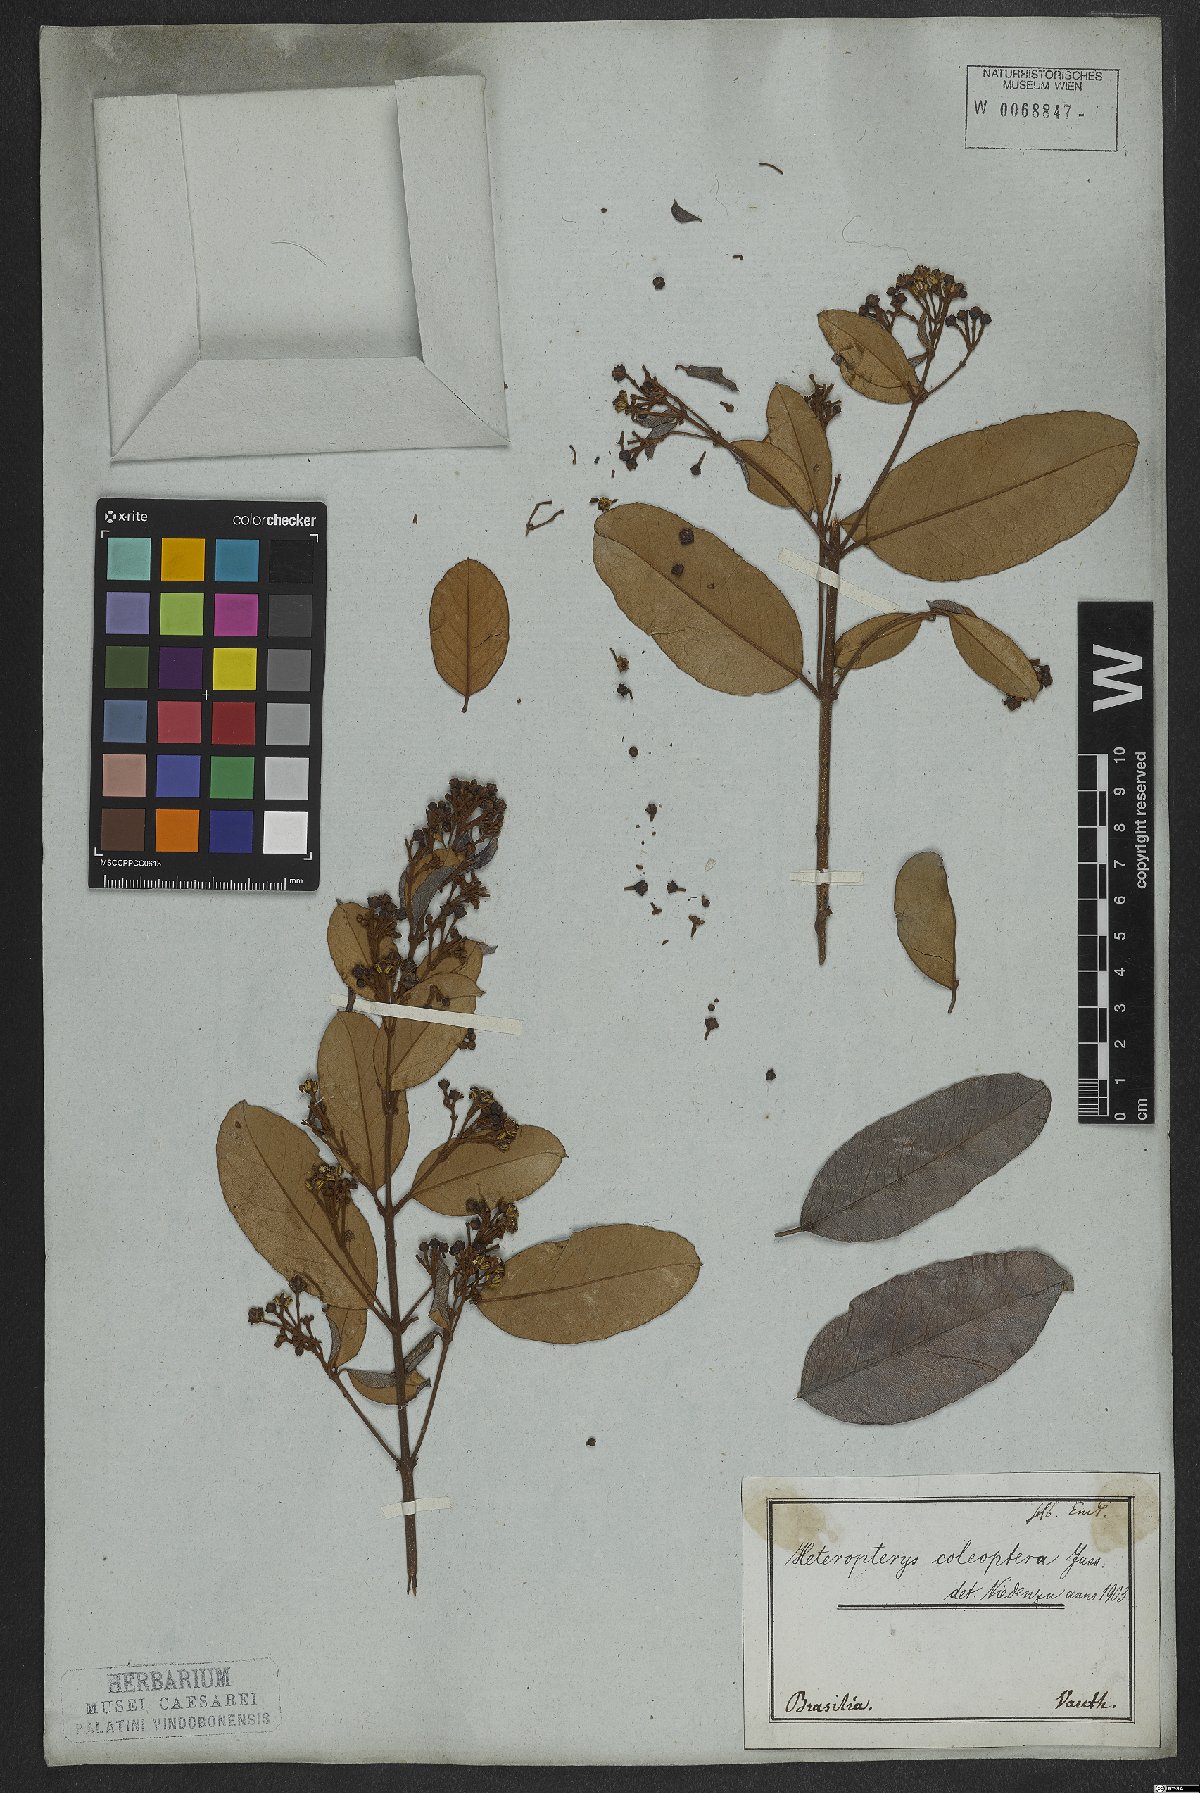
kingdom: Plantae
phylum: Tracheophyta
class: Magnoliopsida
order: Malpighiales
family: Malpighiaceae
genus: Heteropterys
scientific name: Heteropterys coleoptera
